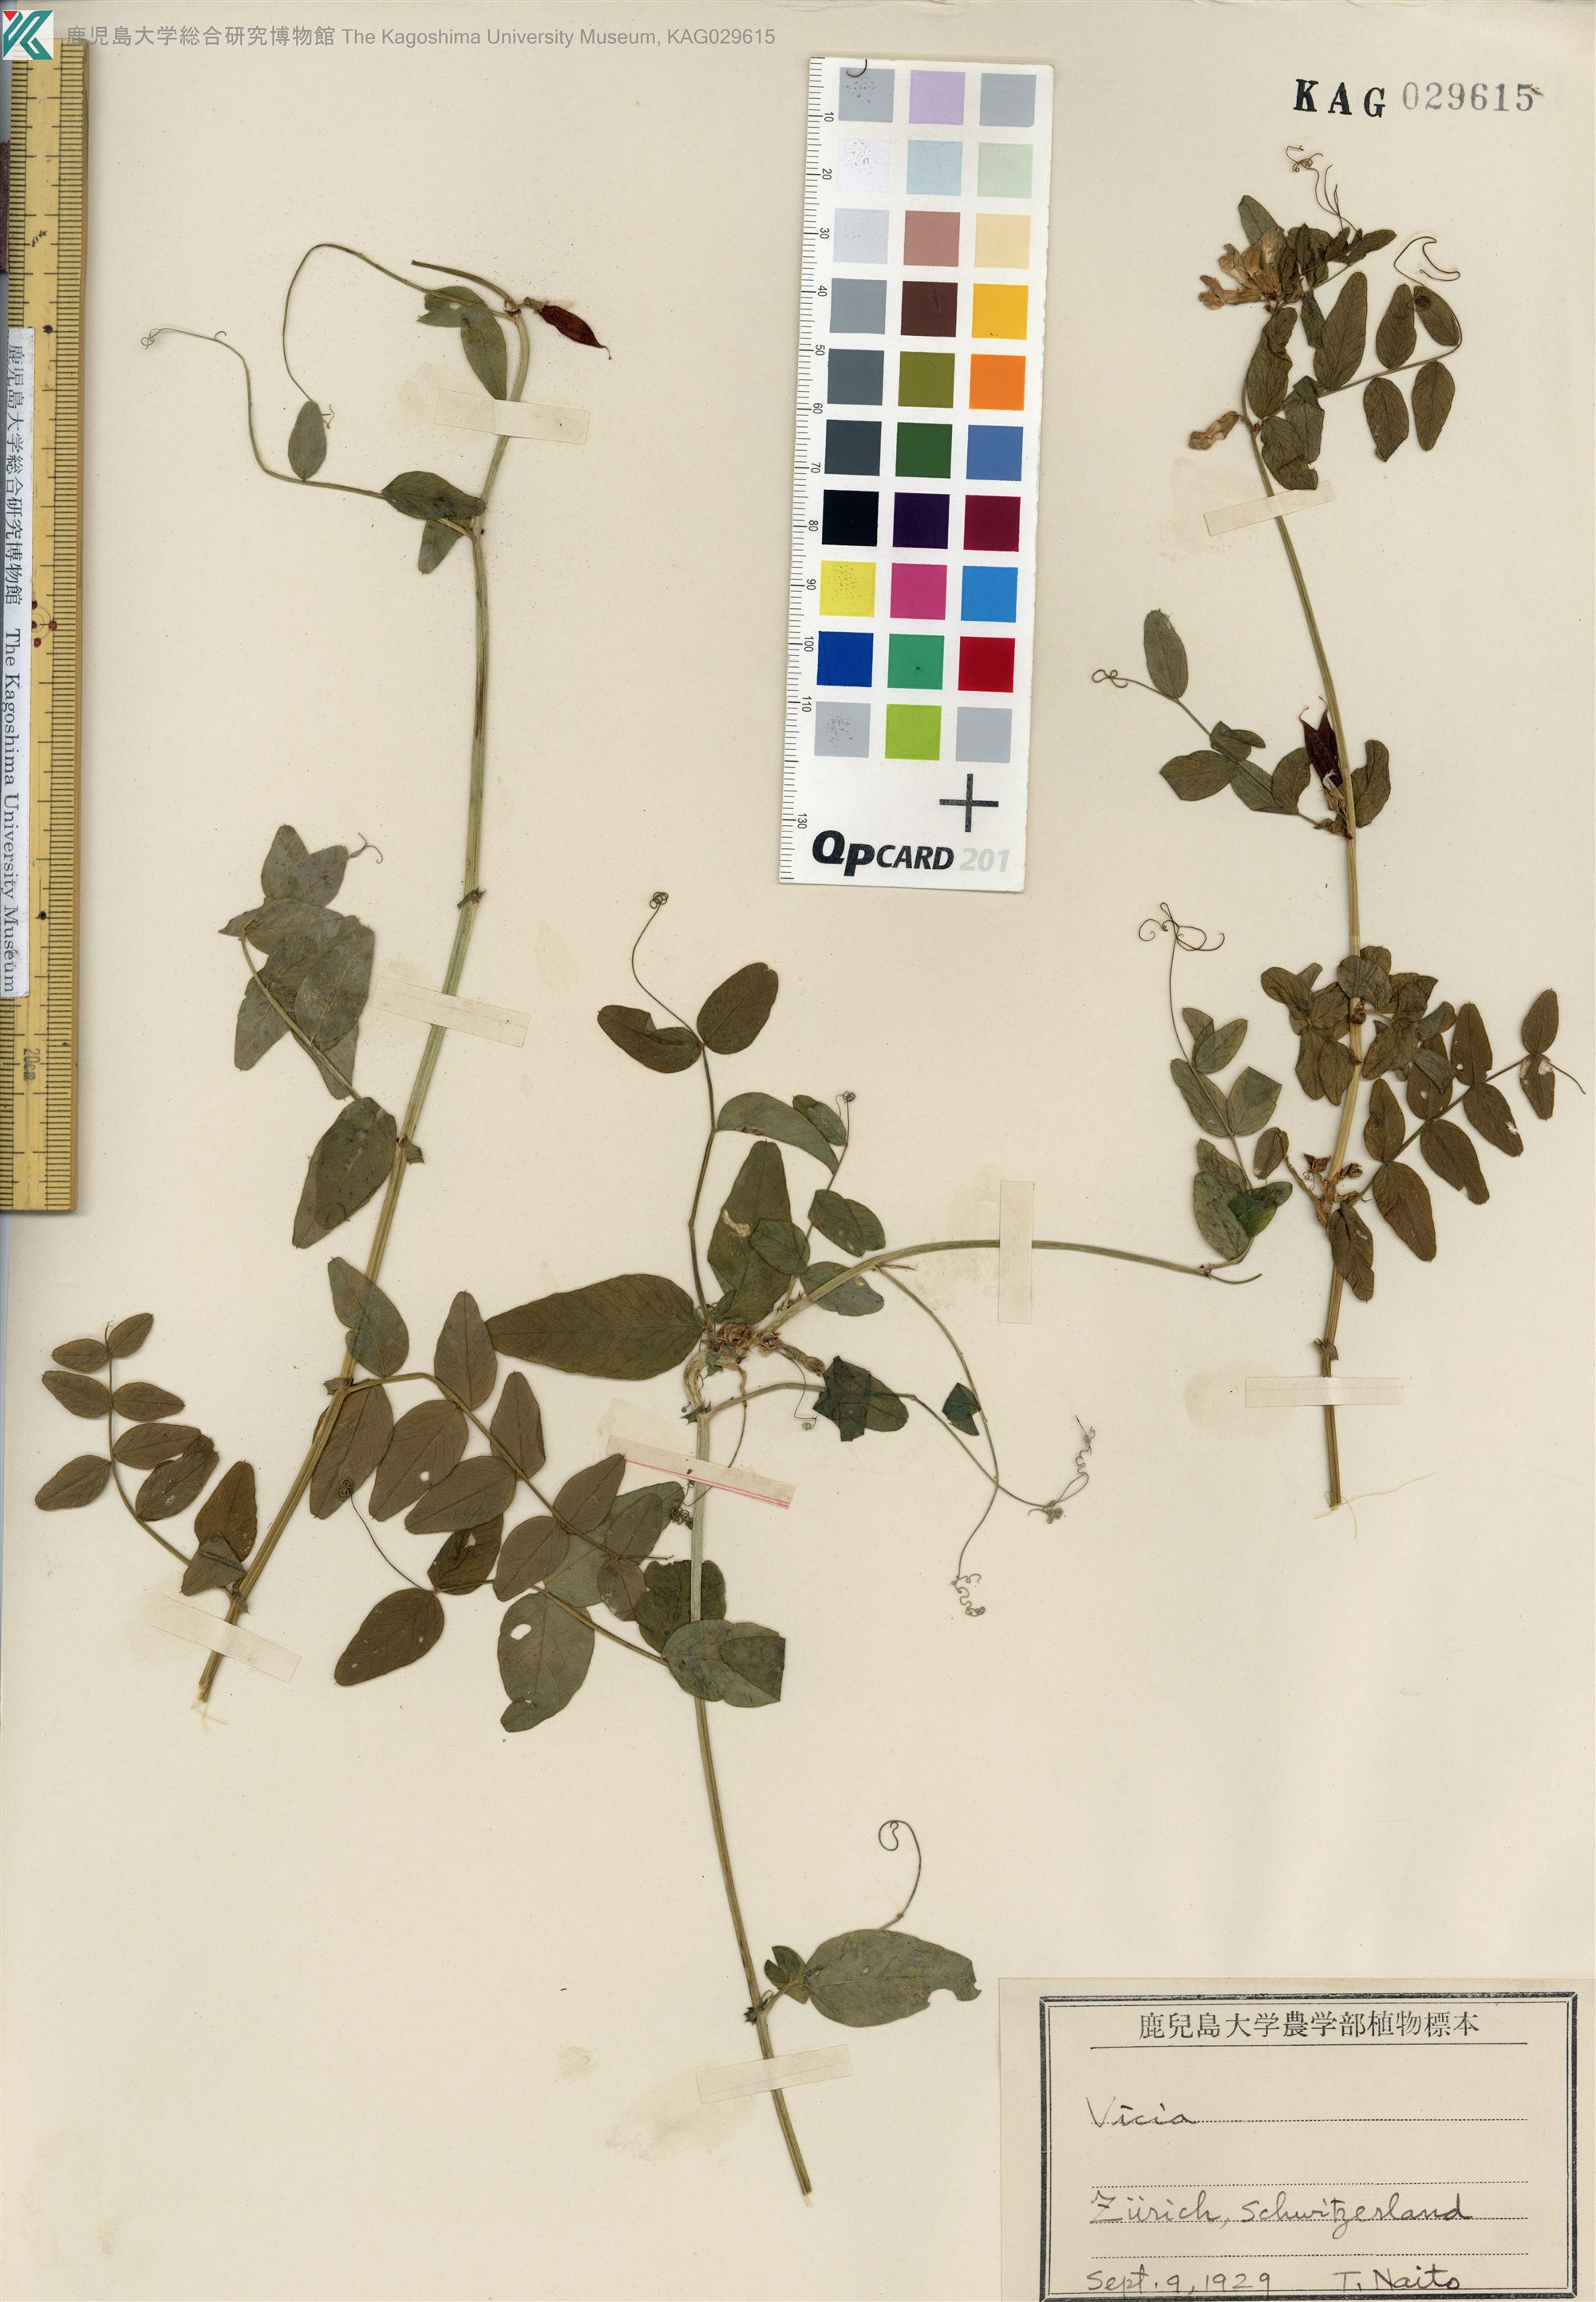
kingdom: Plantae
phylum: Tracheophyta
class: Magnoliopsida
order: Fabales
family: Fabaceae
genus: Vicia
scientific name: Vicia sepium
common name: Bush vetch
